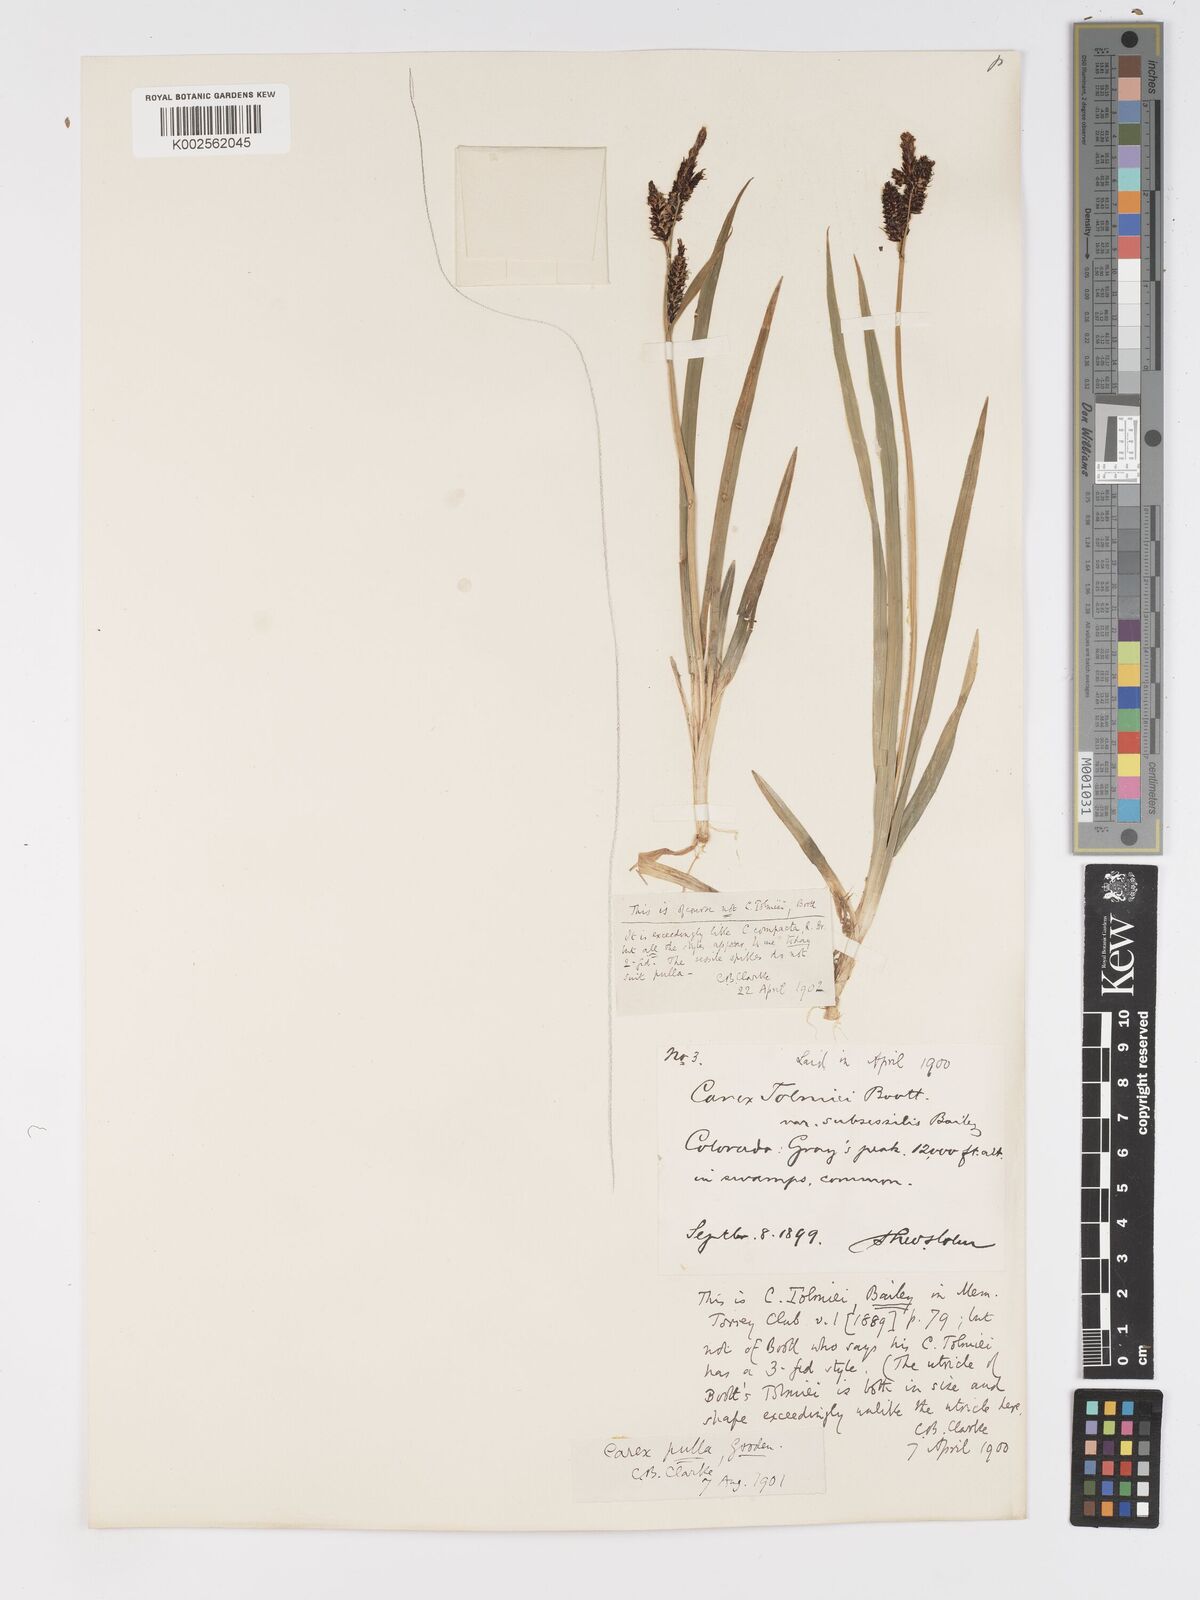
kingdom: Plantae
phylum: Tracheophyta
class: Liliopsida
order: Poales
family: Cyperaceae
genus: Carex
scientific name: Carex scopulorum
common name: Holm's rocky mountain sedge
